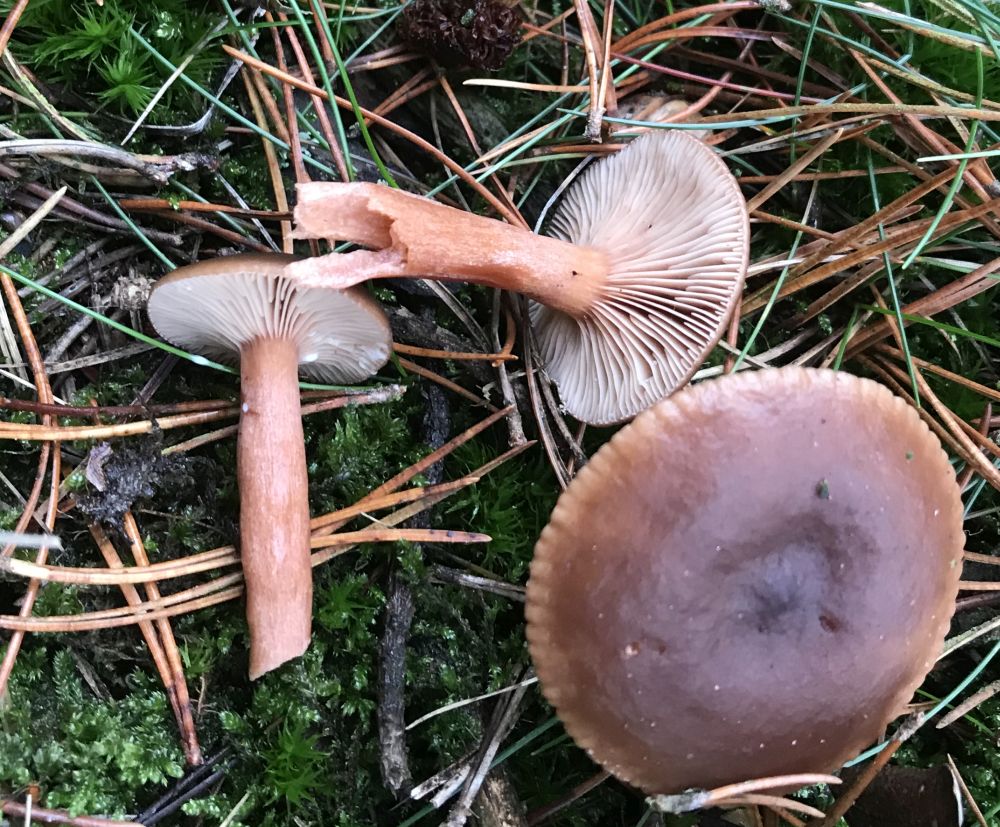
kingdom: Fungi
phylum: Basidiomycota
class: Agaricomycetes
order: Russulales
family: Russulaceae
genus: Lactarius
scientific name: Lactarius hepaticus
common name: leverbrun mælkehat
